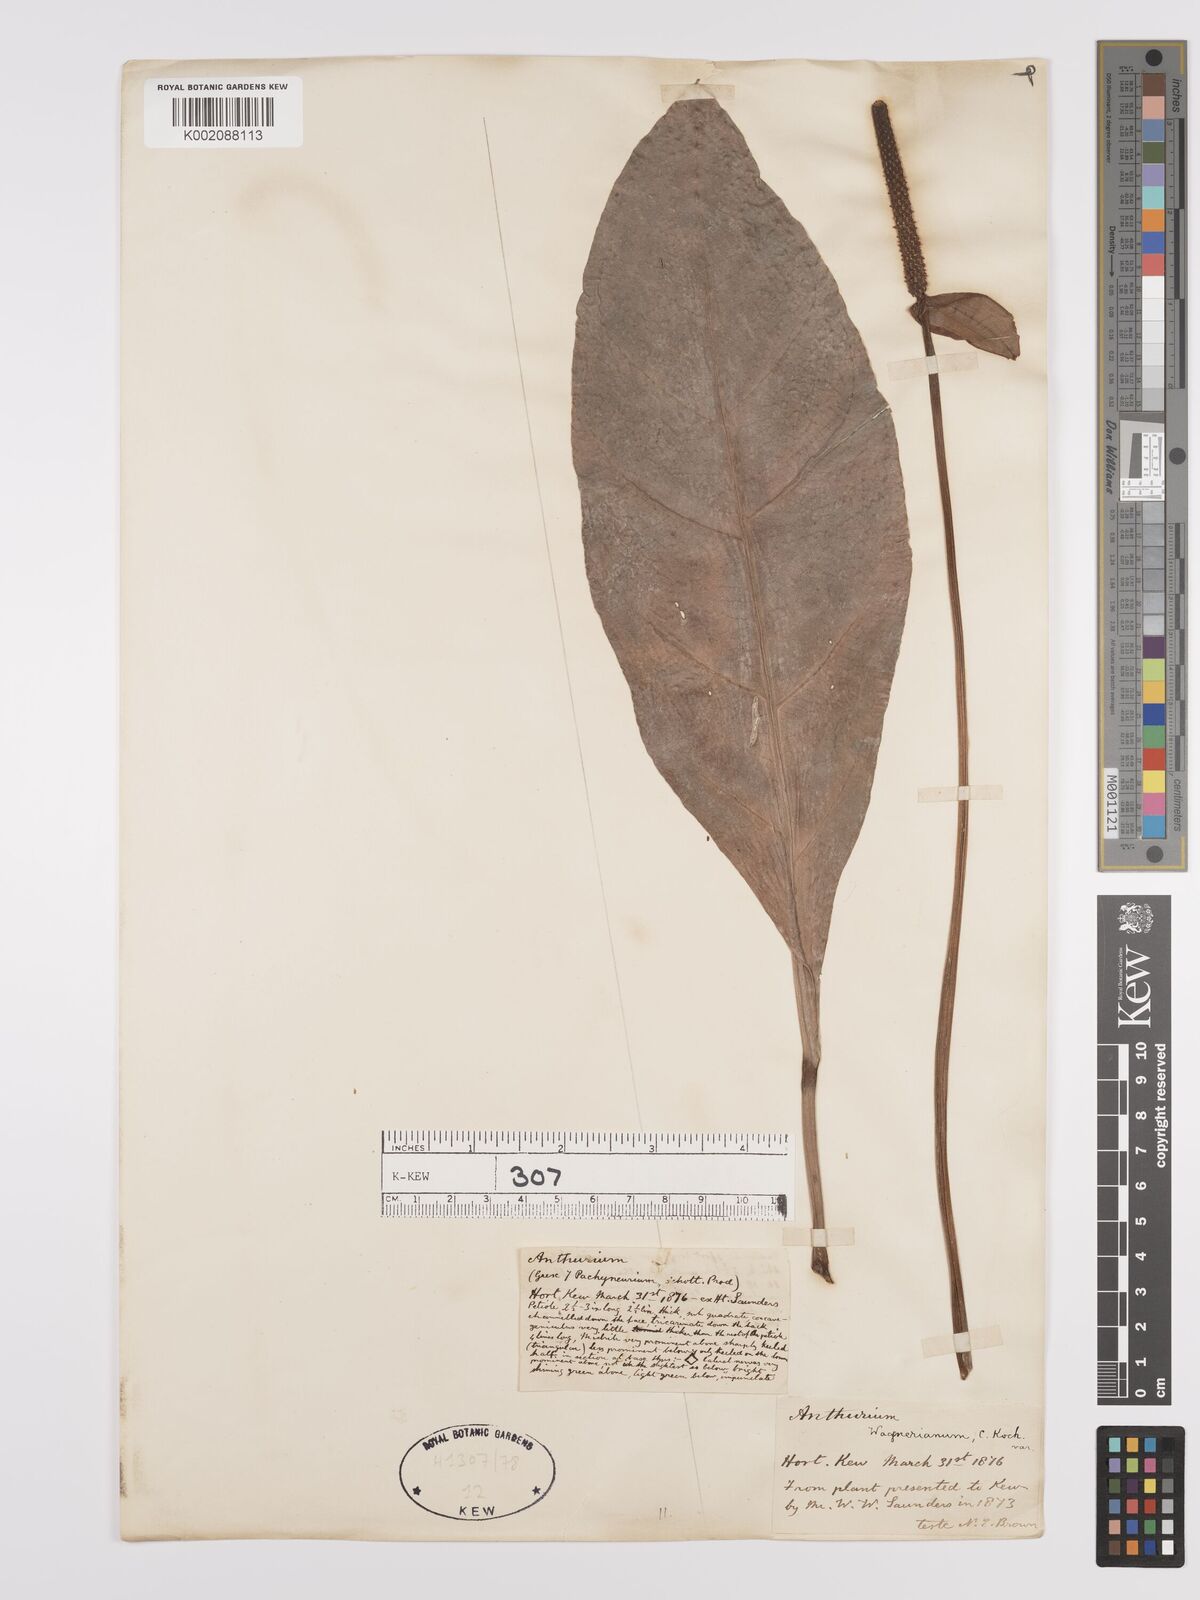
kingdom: Plantae
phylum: Tracheophyta
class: Liliopsida
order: Alismatales
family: Araceae
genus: Anthurium
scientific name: Anthurium wagenerianum
